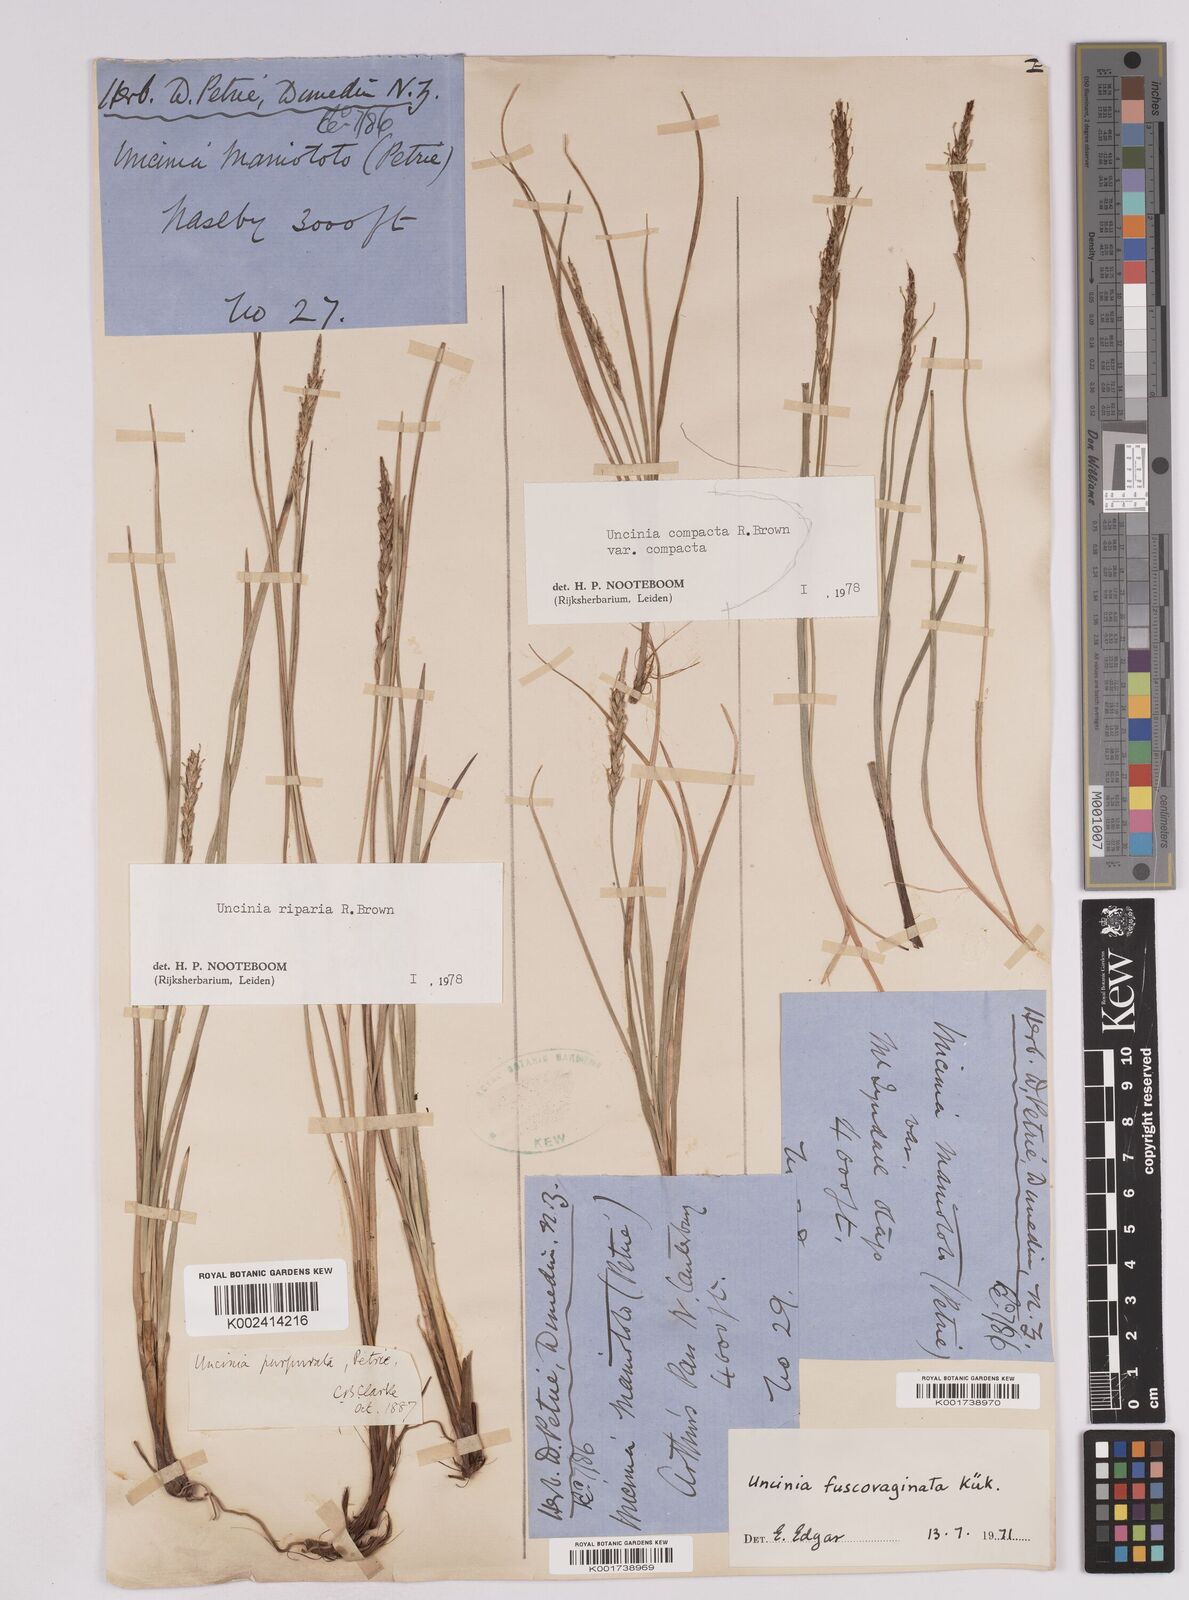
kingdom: Plantae
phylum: Tracheophyta
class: Liliopsida
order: Poales
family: Cyperaceae
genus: Carex
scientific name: Carex penalpina
